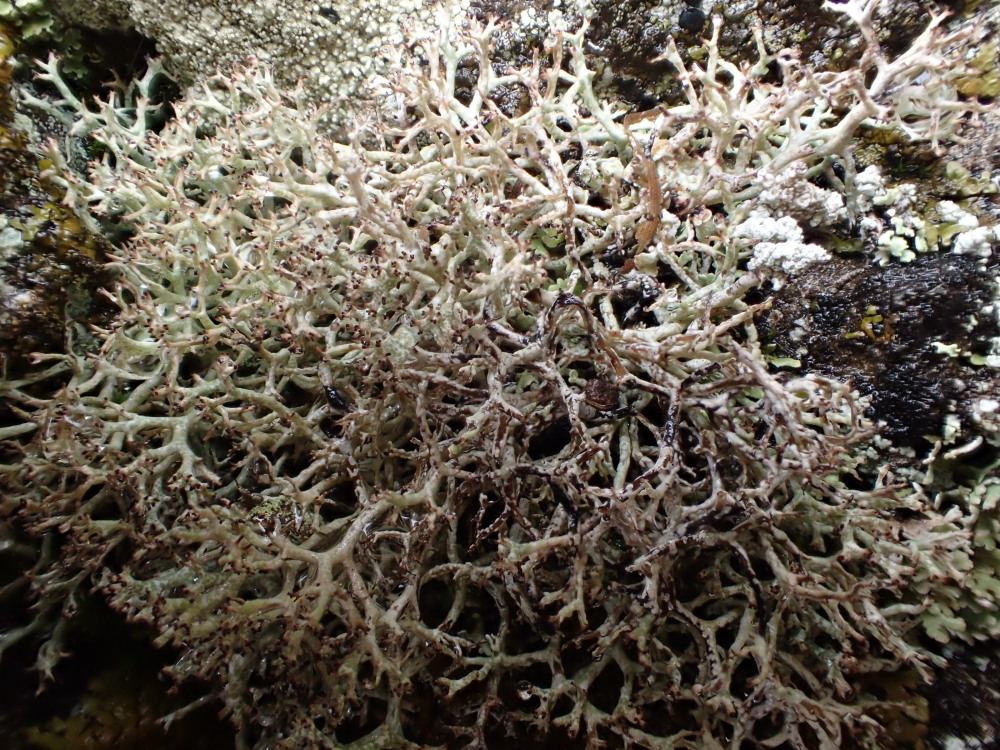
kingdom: Fungi
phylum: Ascomycota
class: Lecanoromycetes
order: Lecanorales
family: Cladoniaceae
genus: Cladonia
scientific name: Cladonia rangiformis
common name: spættet bægerlav
